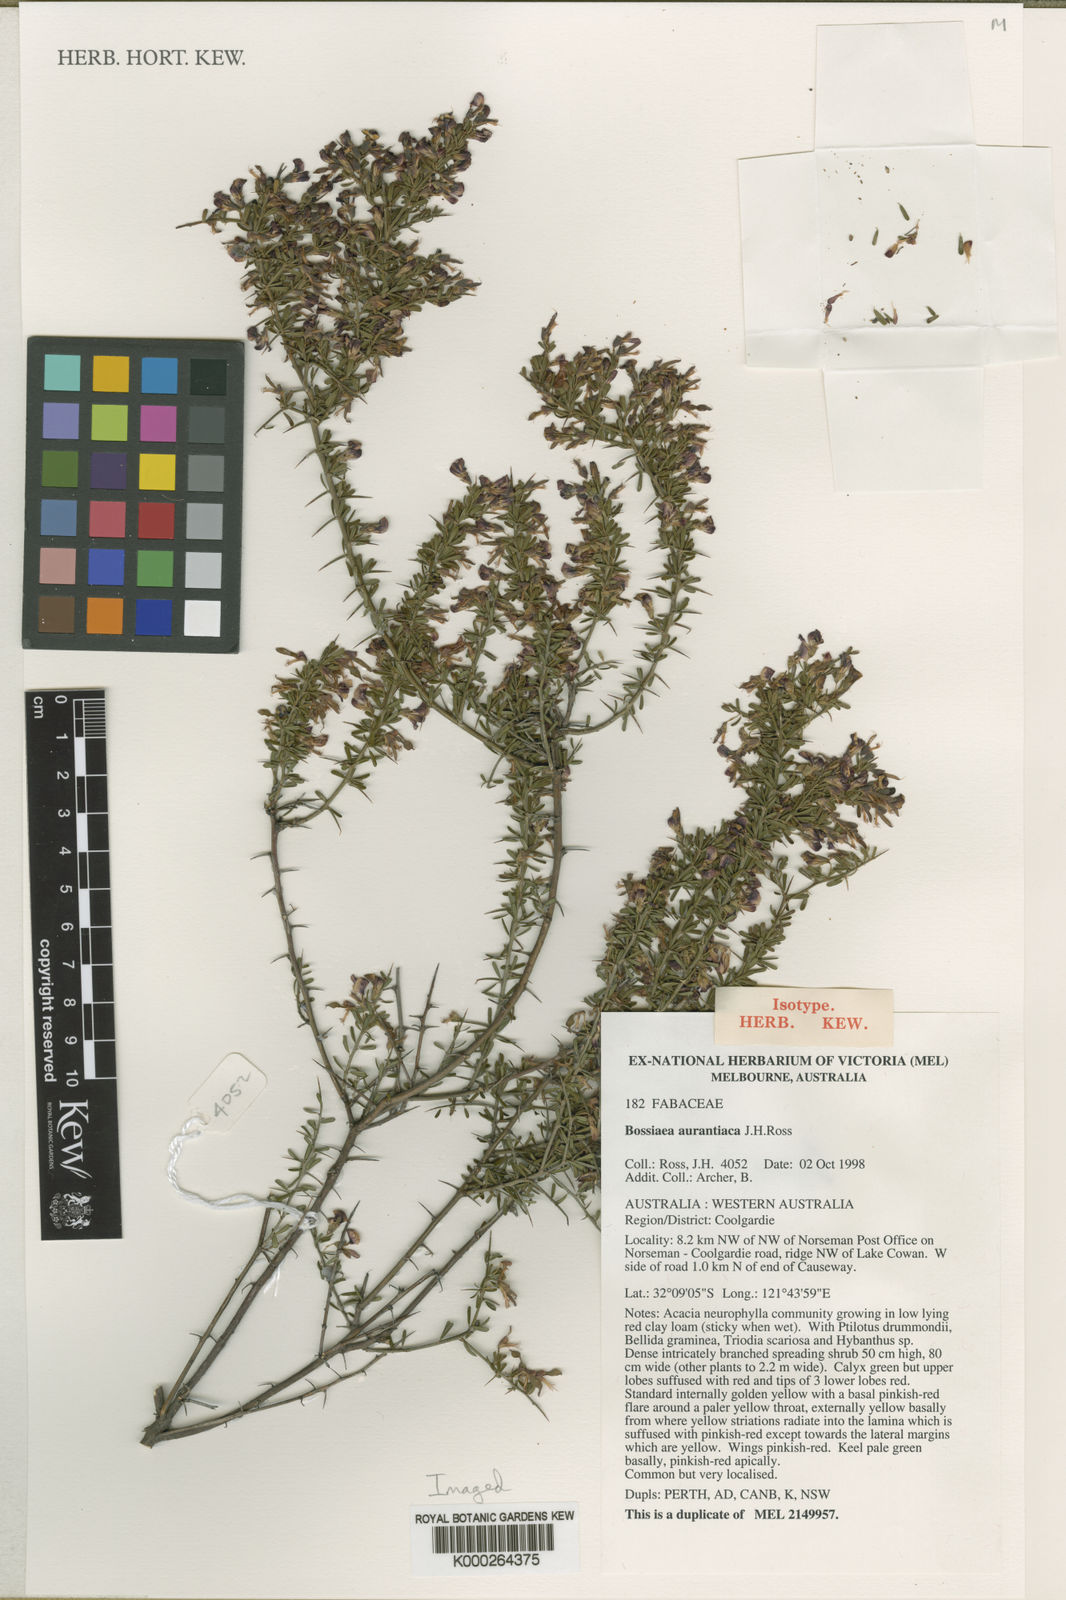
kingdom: Plantae
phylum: Tracheophyta
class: Magnoliopsida
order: Fabales
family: Fabaceae
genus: Bossiaea
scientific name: Bossiaea aurantiaca
